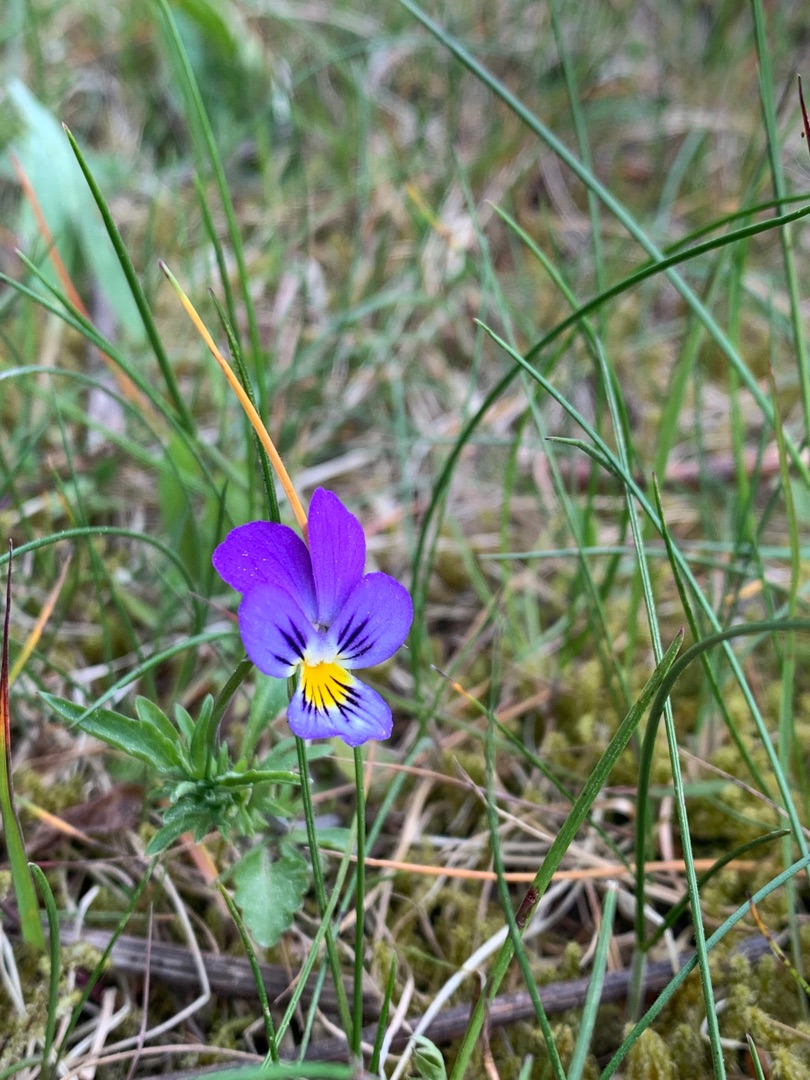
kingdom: Plantae
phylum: Tracheophyta
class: Magnoliopsida
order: Malpighiales
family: Violaceae
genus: Viola
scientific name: Viola tricolor
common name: Stedmoderblomst
